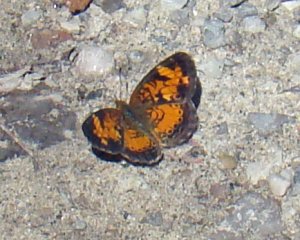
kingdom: Animalia
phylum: Arthropoda
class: Insecta
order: Lepidoptera
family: Nymphalidae
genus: Phyciodes
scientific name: Phyciodes tharos
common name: Northern Crescent
